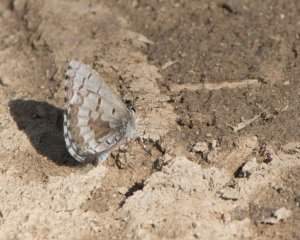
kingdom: Animalia
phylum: Arthropoda
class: Insecta
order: Lepidoptera
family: Lycaenidae
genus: Celastrina
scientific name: Celastrina lucia
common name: Northern Spring Azure
